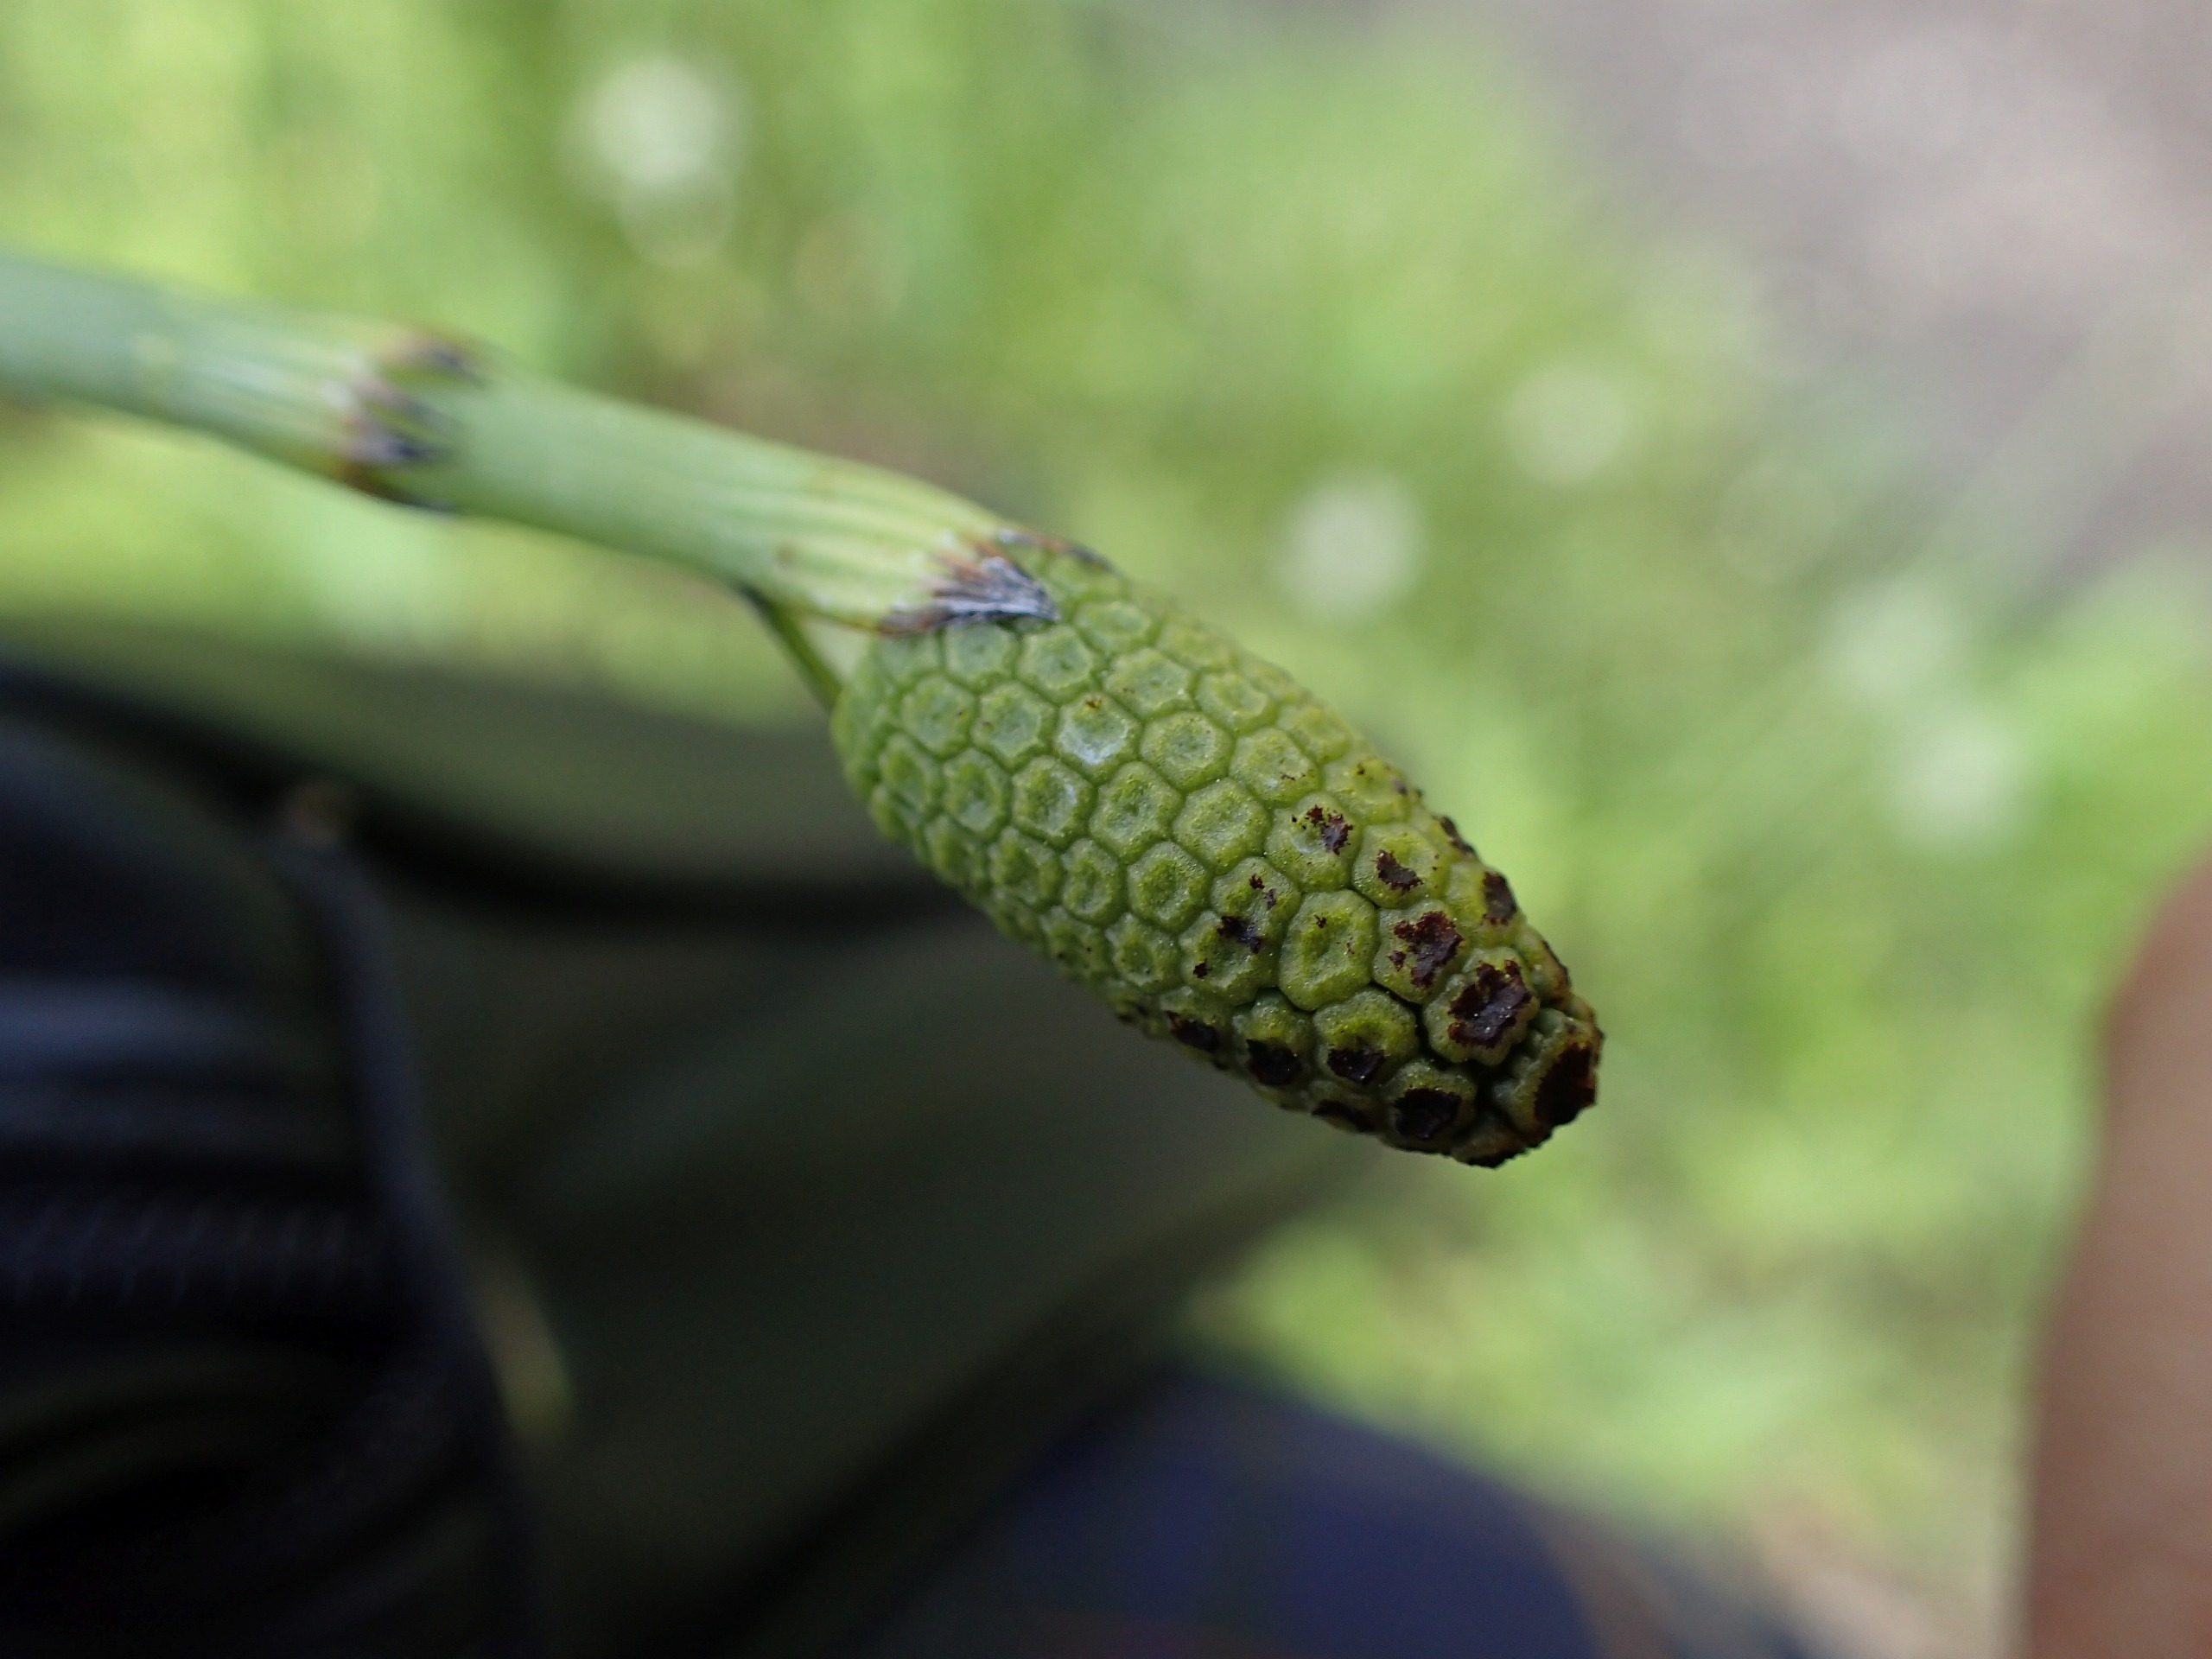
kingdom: Plantae
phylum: Tracheophyta
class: Polypodiopsida
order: Equisetales
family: Equisetaceae
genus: Equisetum
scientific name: Equisetum fluviatile
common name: Dynd-padderok
